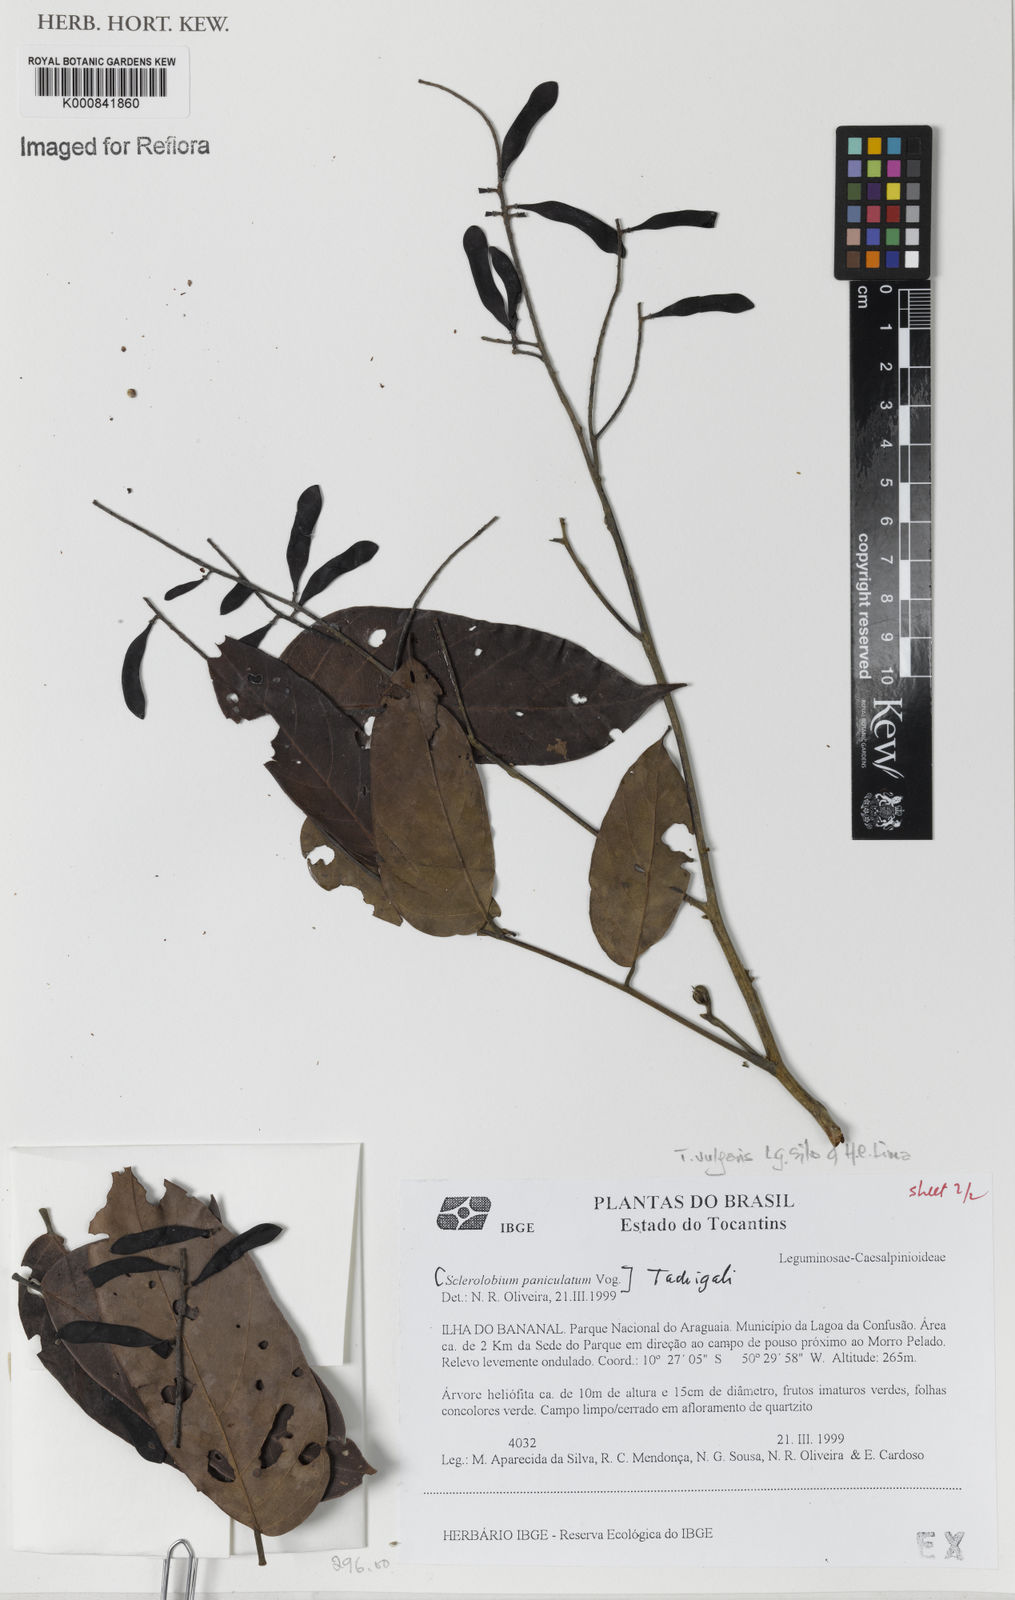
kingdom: Plantae
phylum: Tracheophyta
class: Magnoliopsida
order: Fabales
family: Fabaceae
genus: Tachigali
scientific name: Tachigali vulgaris
